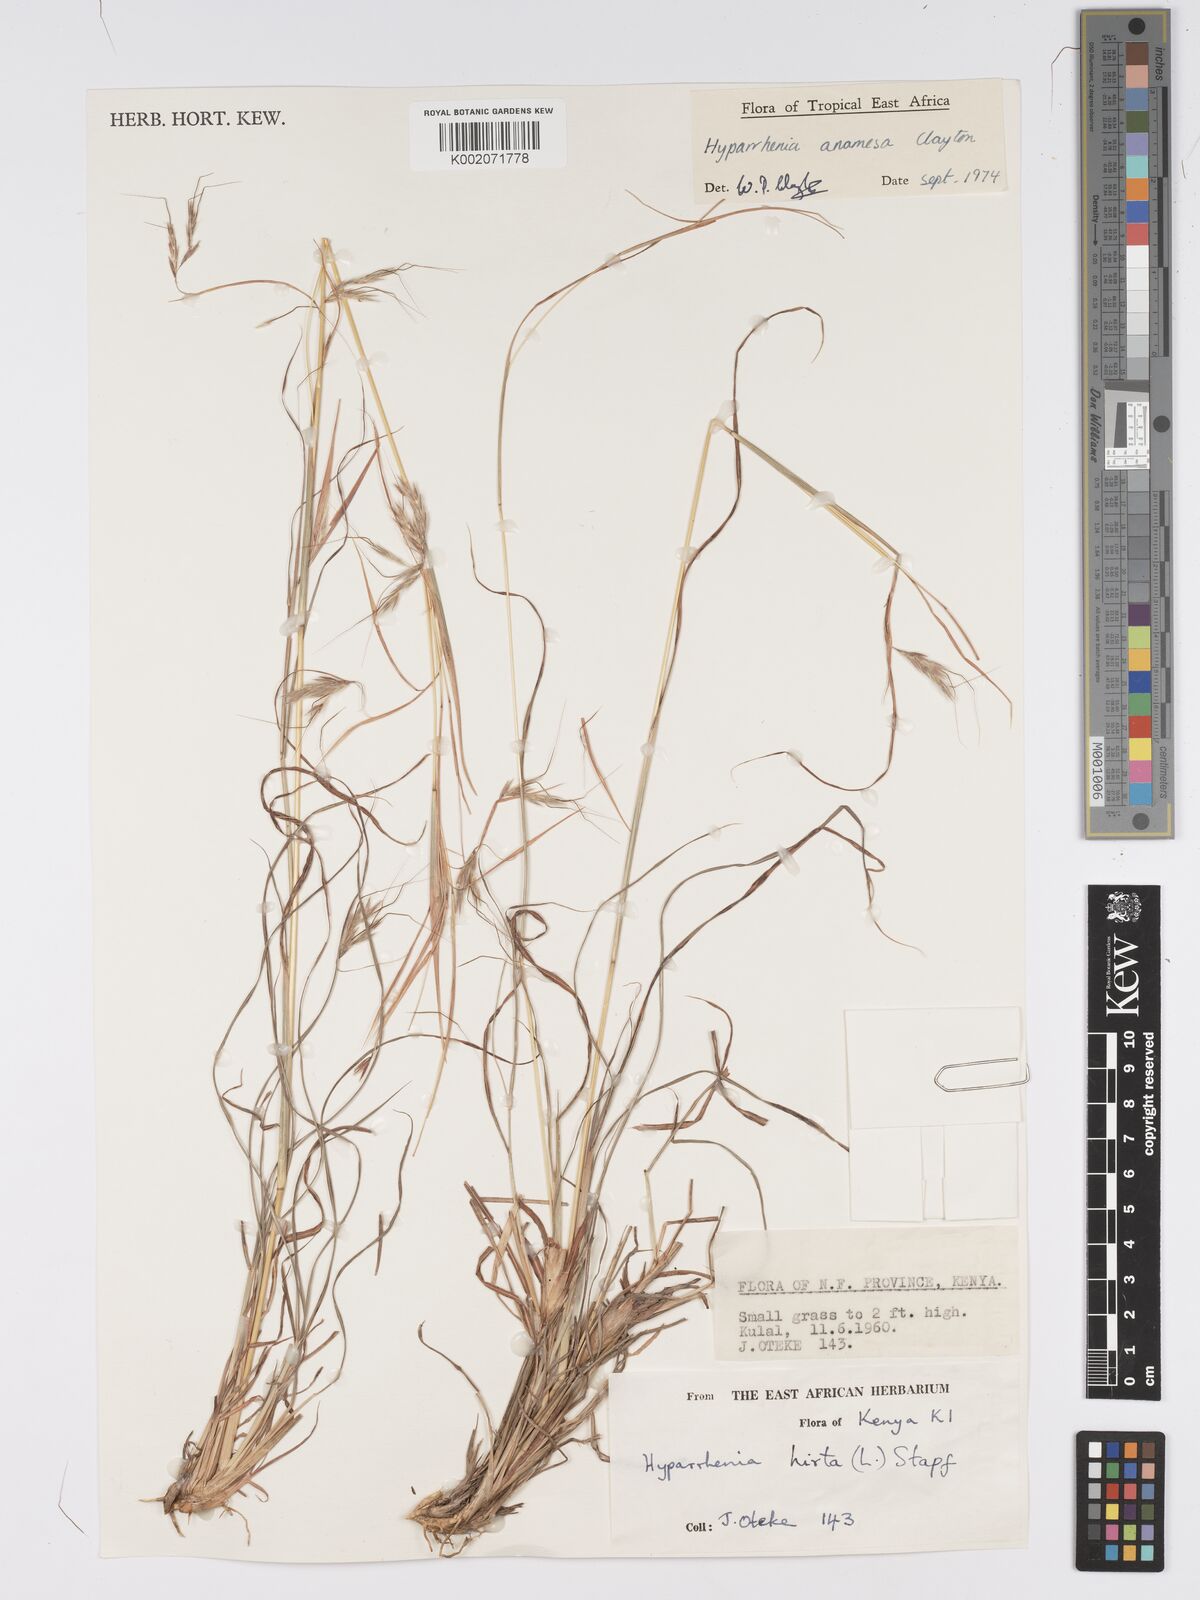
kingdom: Plantae
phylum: Tracheophyta
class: Liliopsida
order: Poales
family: Poaceae
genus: Hyparrhenia
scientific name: Hyparrhenia anamesa
